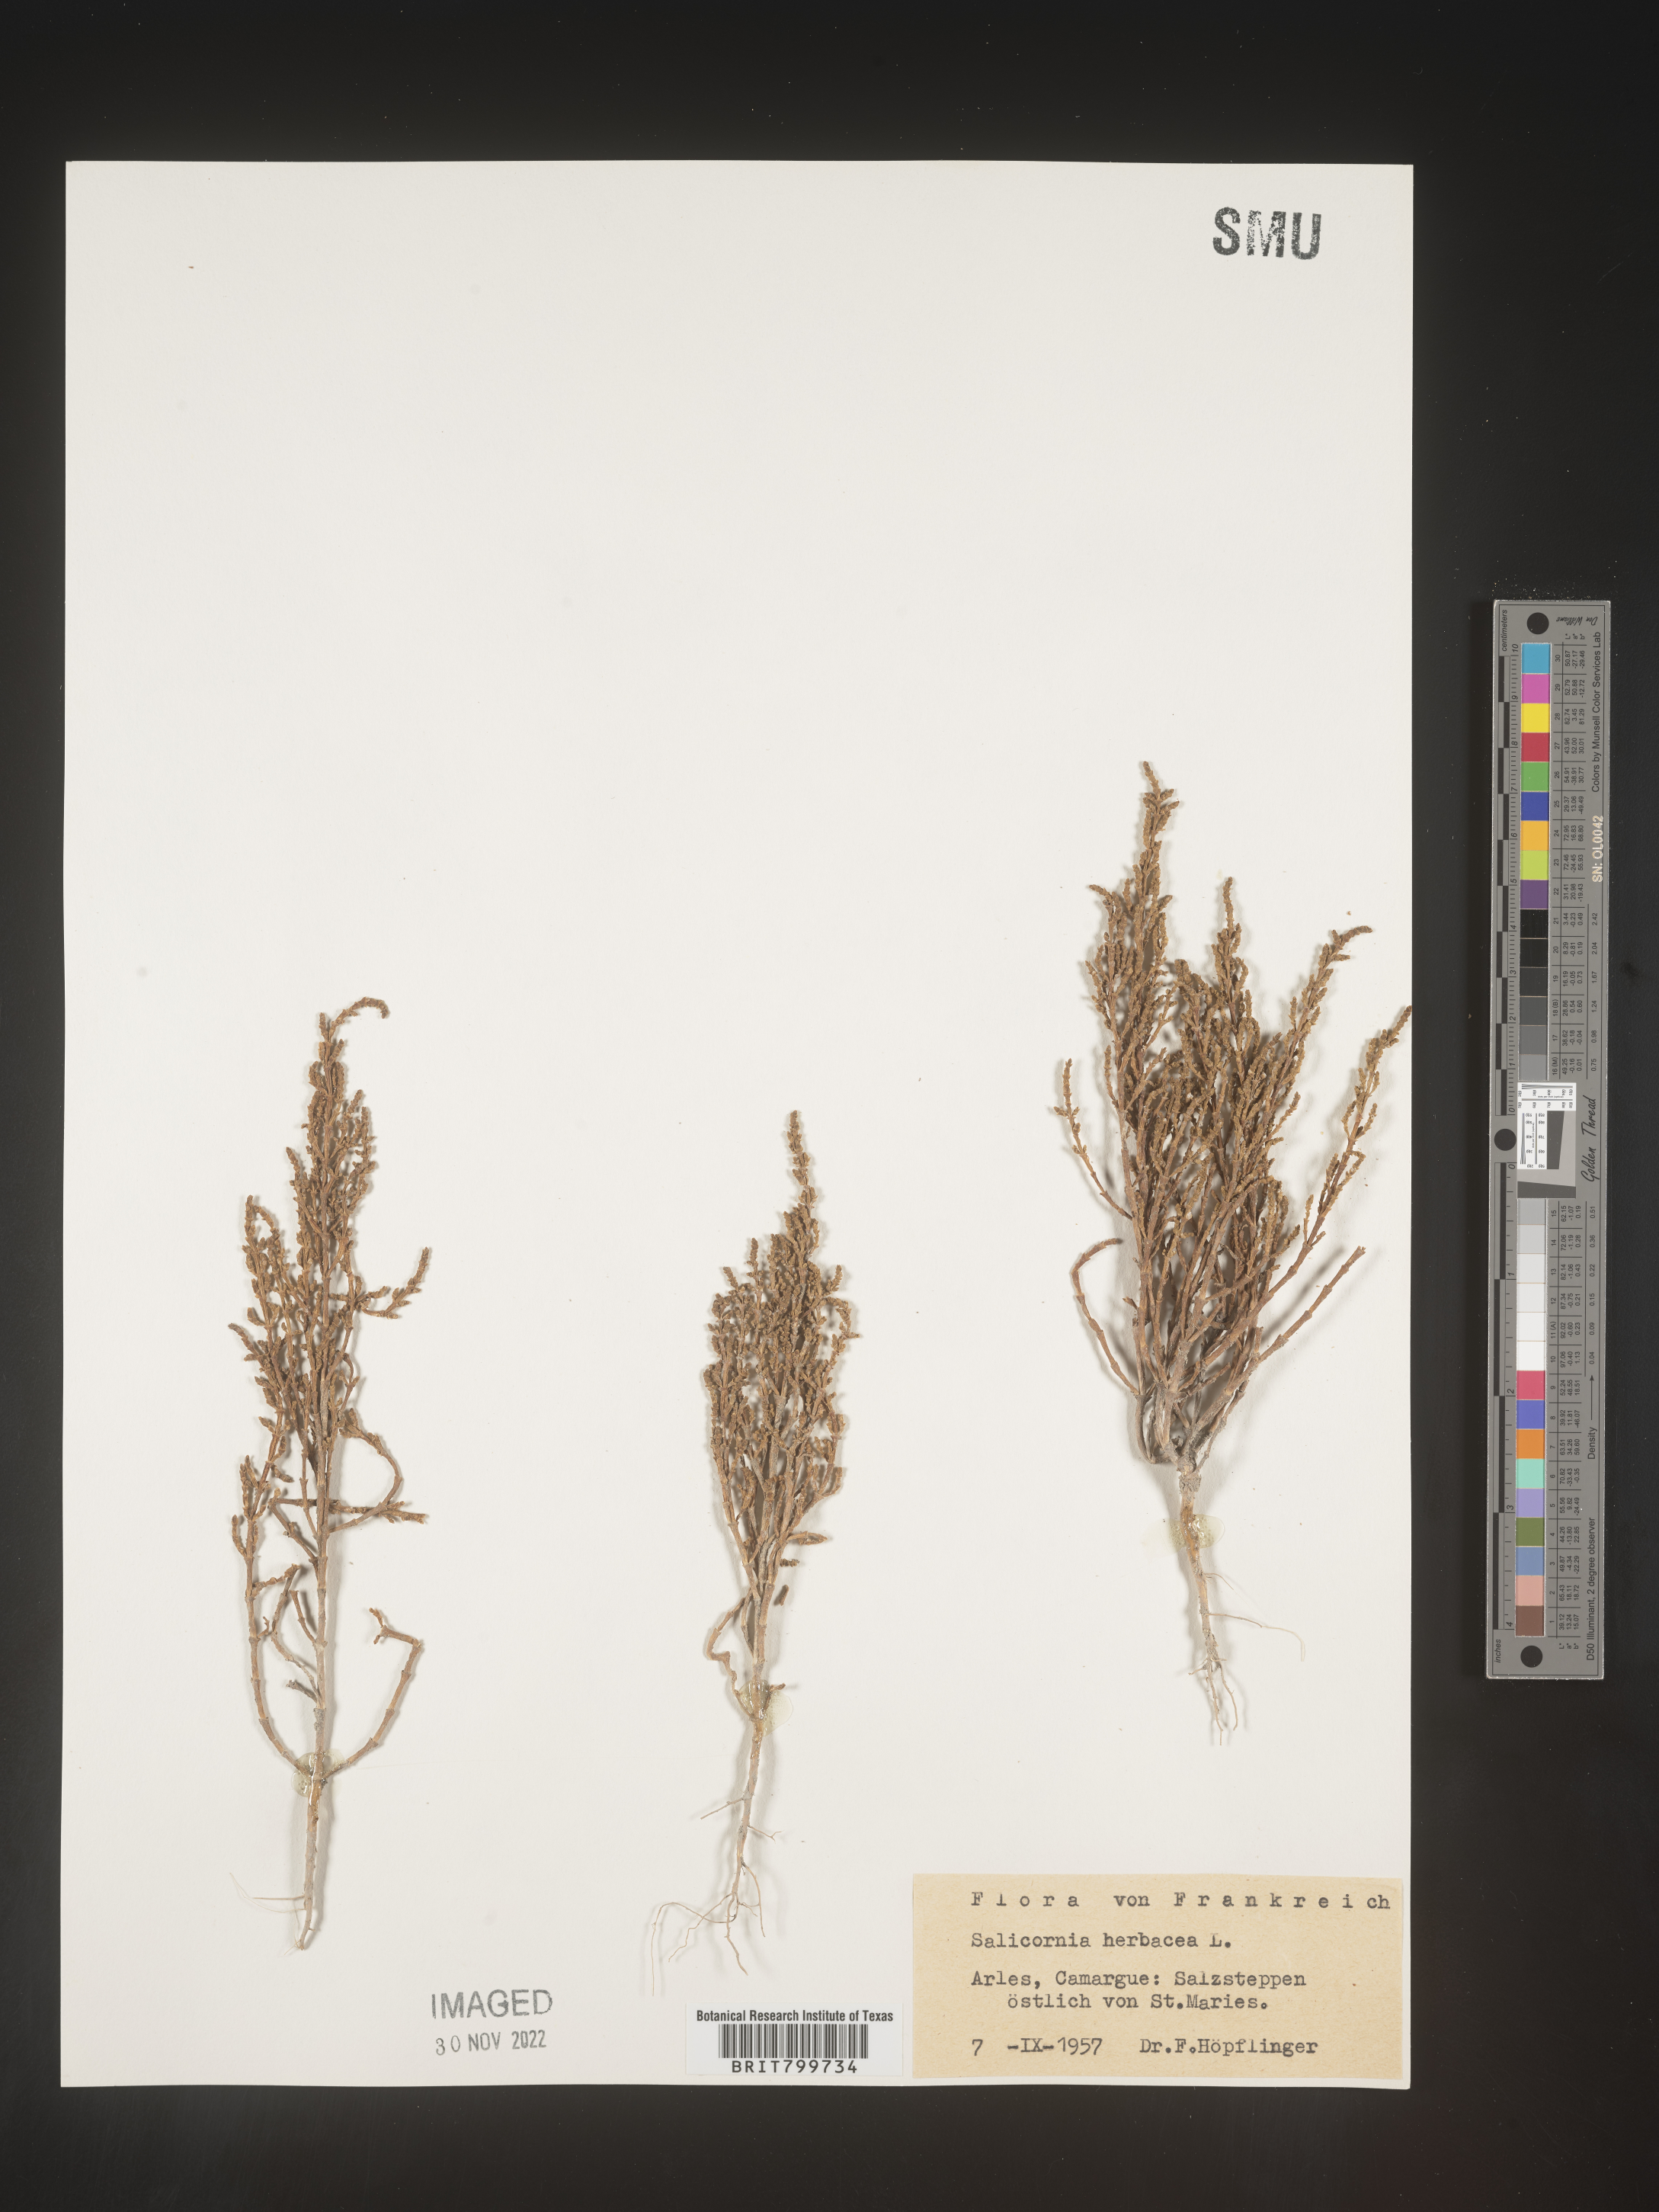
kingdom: Plantae
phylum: Tracheophyta
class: Magnoliopsida
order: Caryophyllales
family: Amaranthaceae
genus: Salicornia
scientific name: Salicornia
